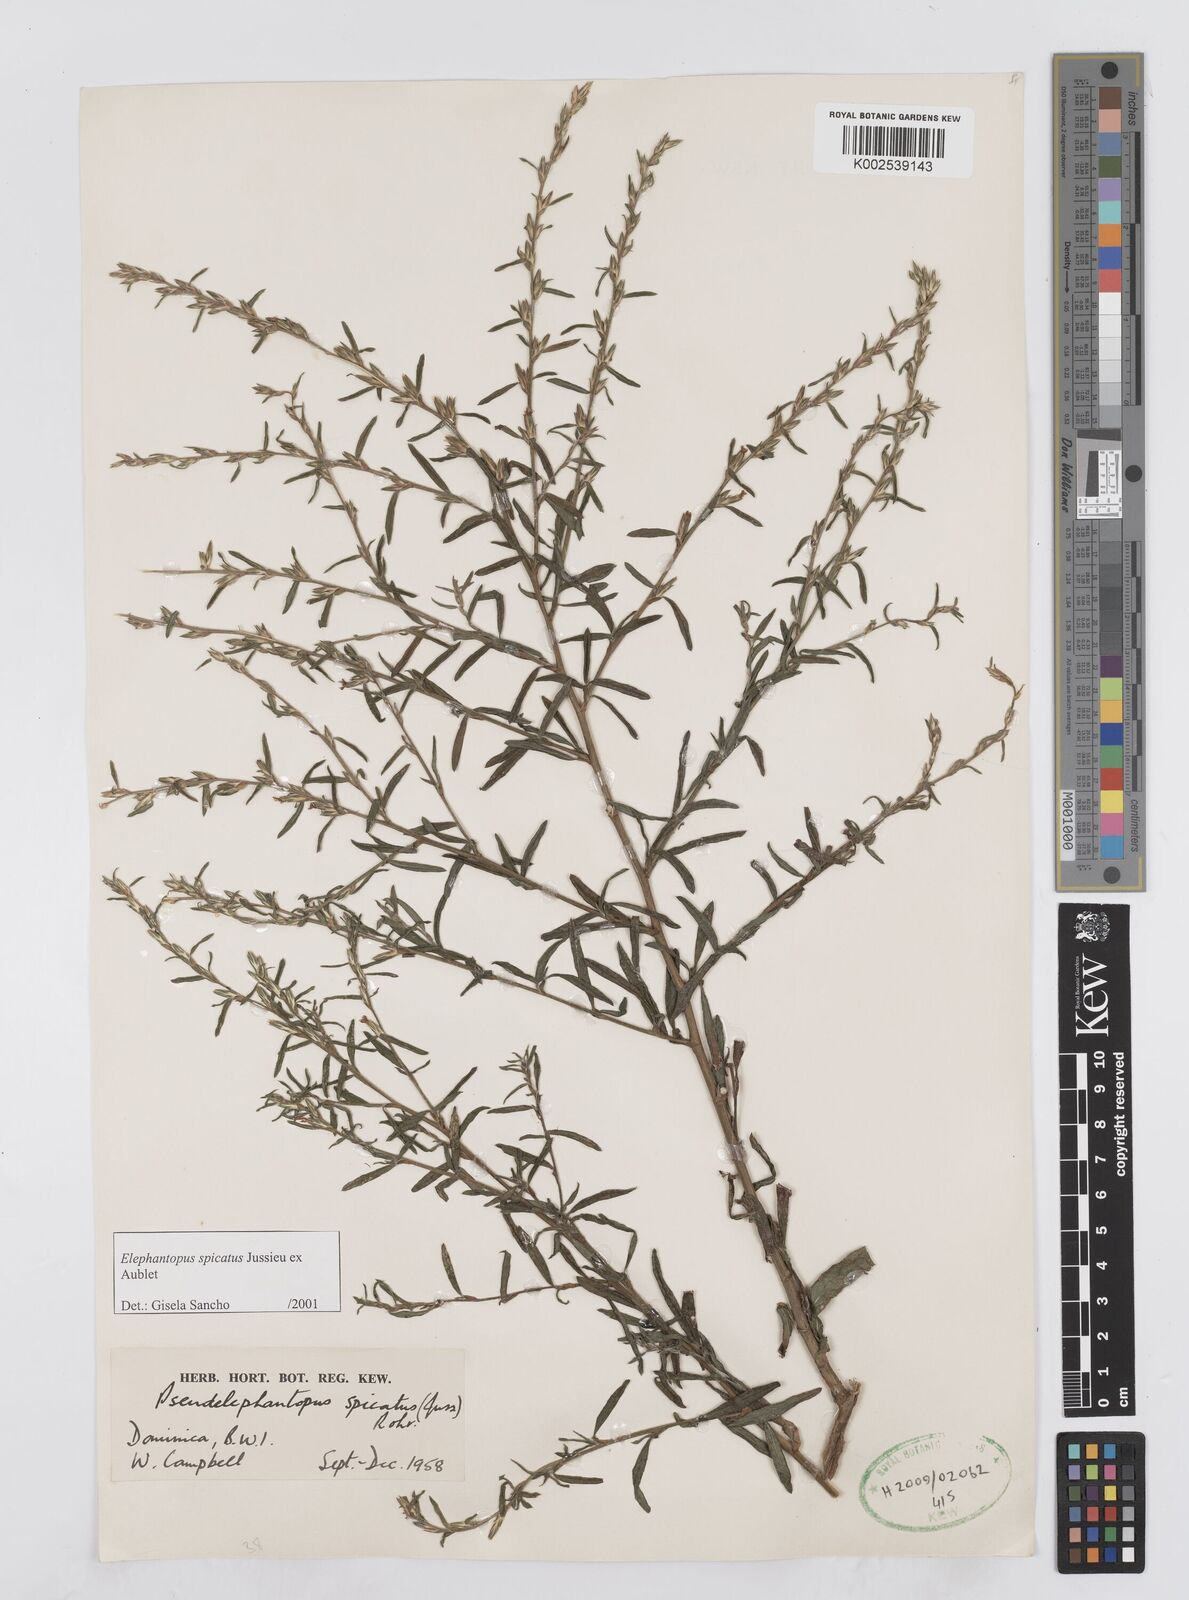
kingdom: Plantae
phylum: Tracheophyta
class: Magnoliopsida
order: Asterales
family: Asteraceae
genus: Pseudelephantopus
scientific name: Pseudelephantopus spicatus
